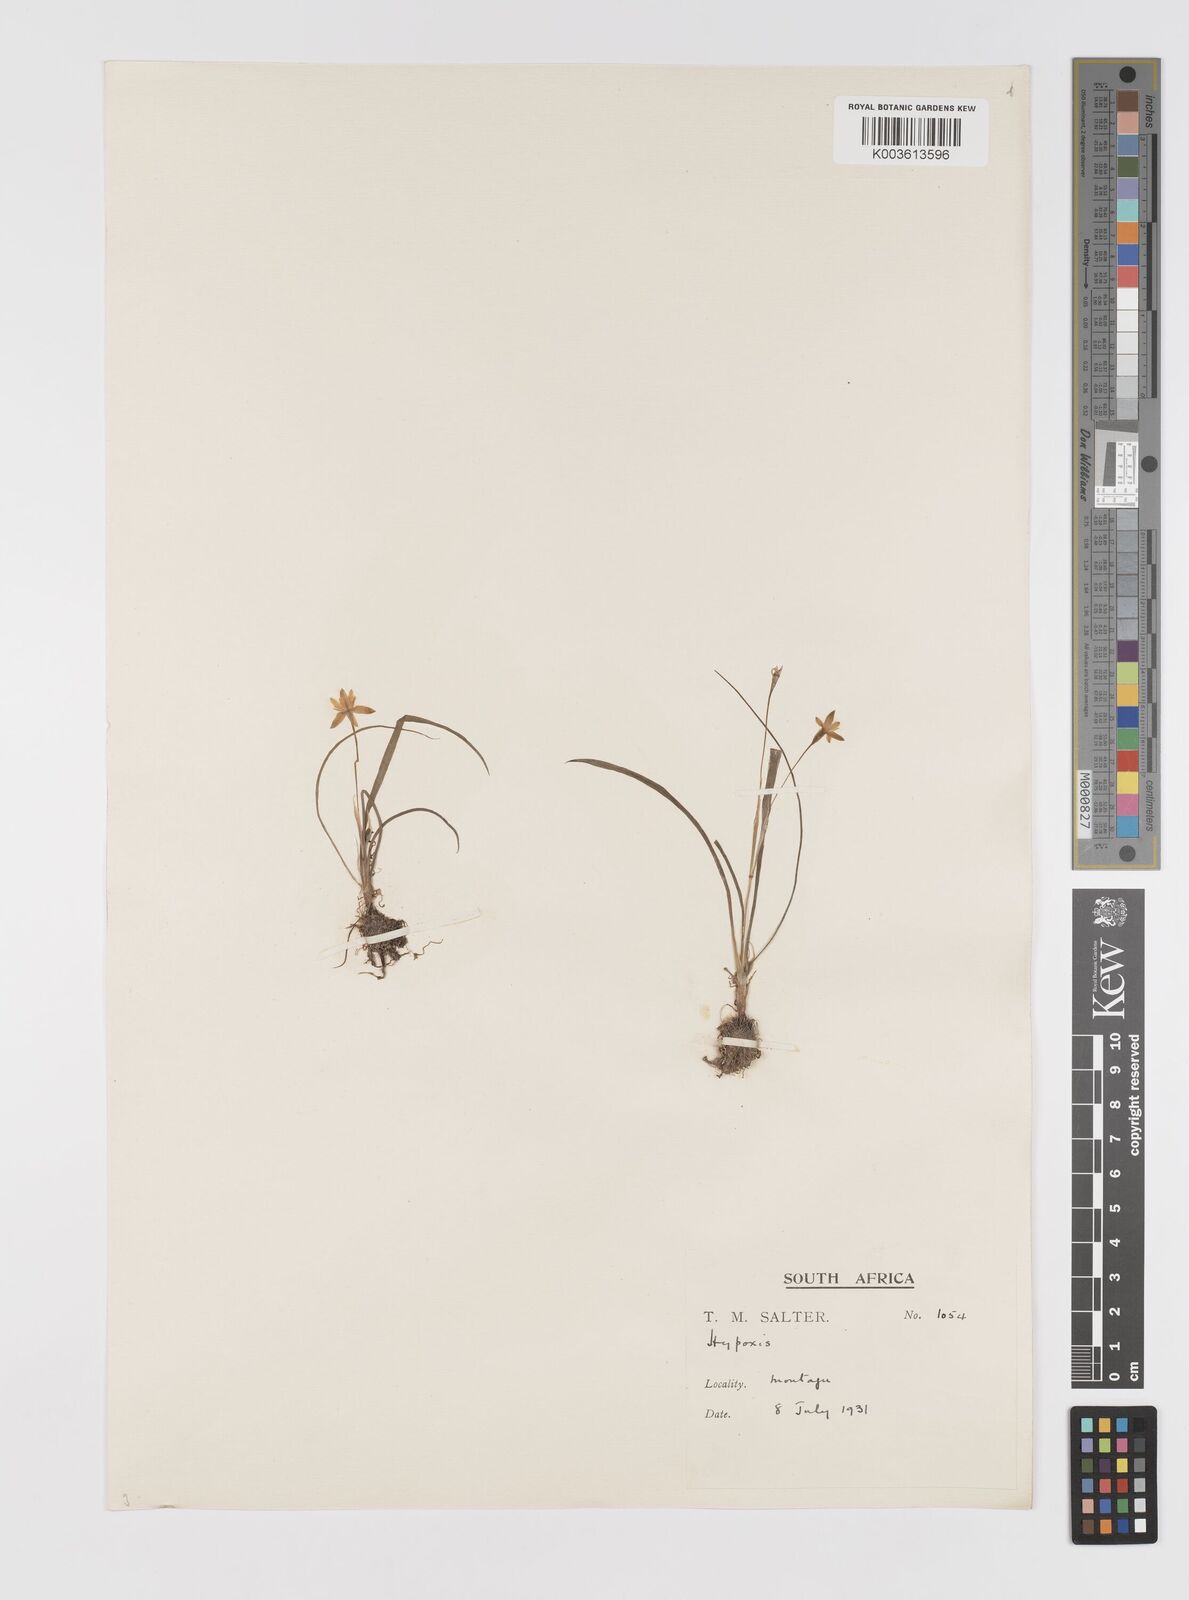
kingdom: Plantae
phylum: Tracheophyta
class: Liliopsida
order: Asparagales
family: Hypoxidaceae
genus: Pauridia
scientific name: Pauridia serrata
